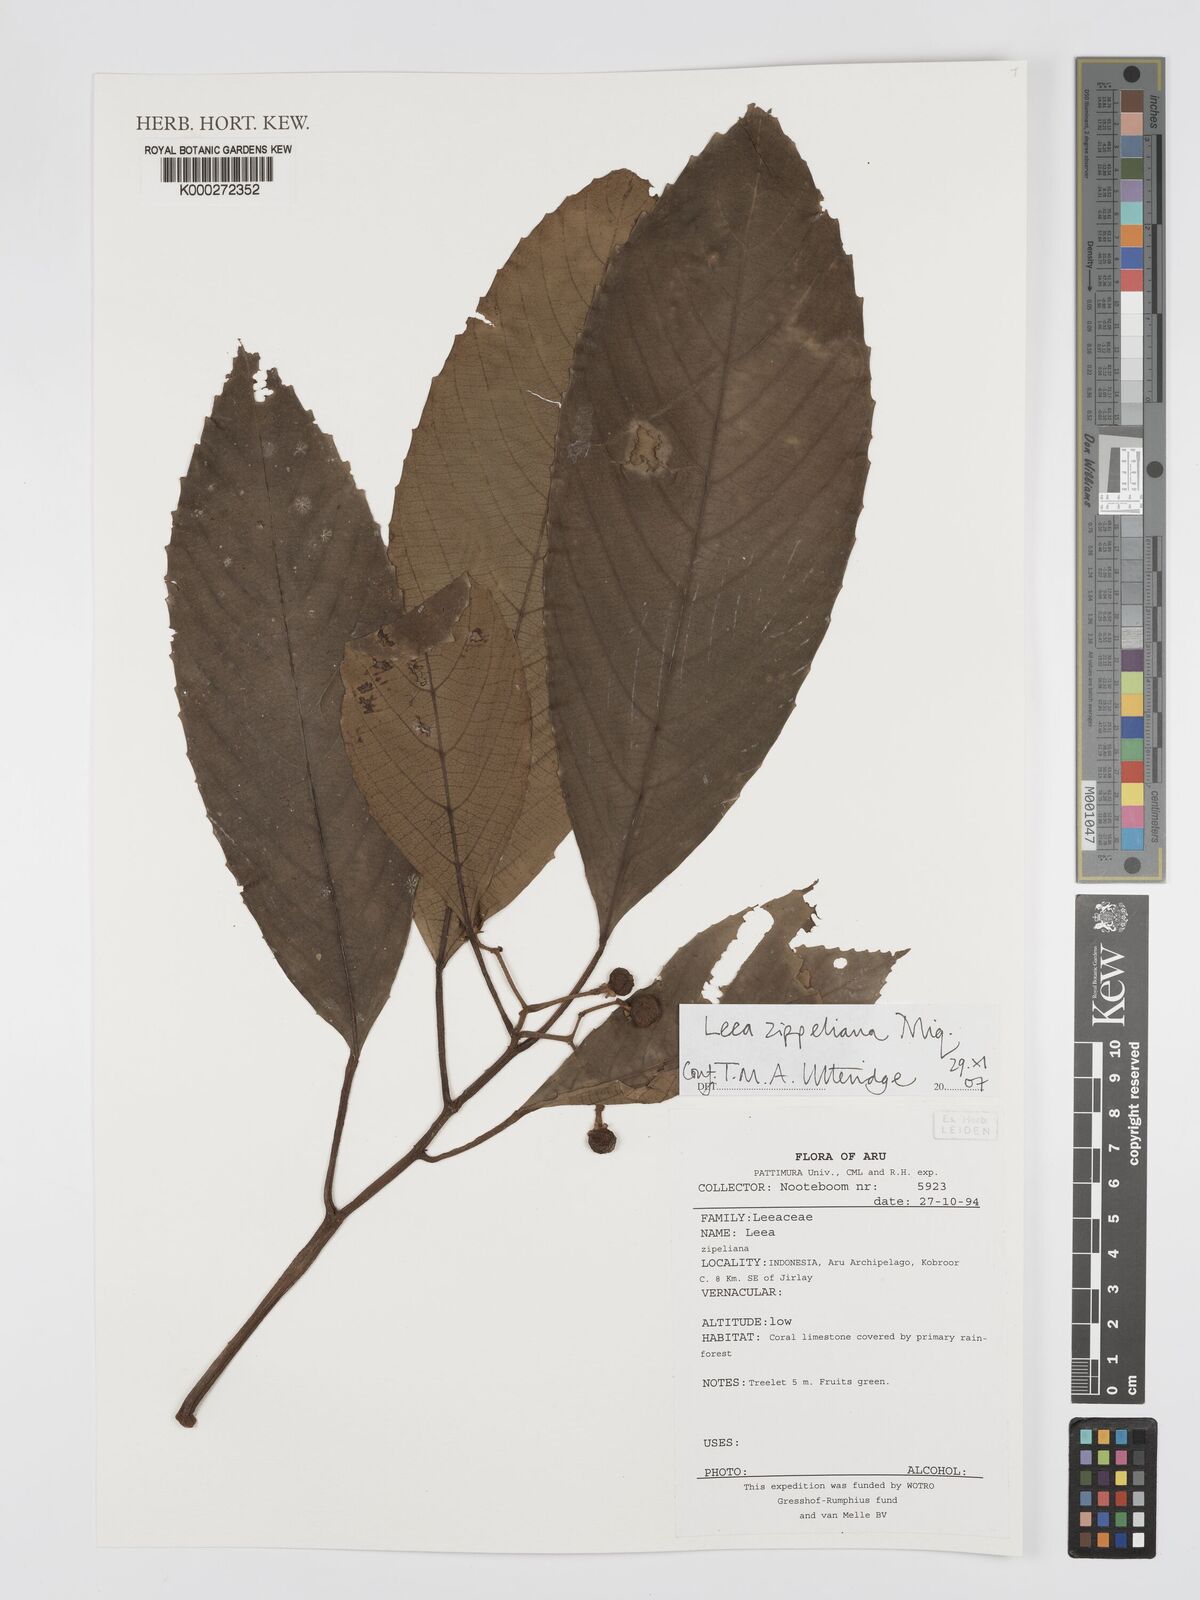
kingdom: Plantae
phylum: Tracheophyta
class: Magnoliopsida
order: Vitales
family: Vitaceae
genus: Leea
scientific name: Leea zippeliana
